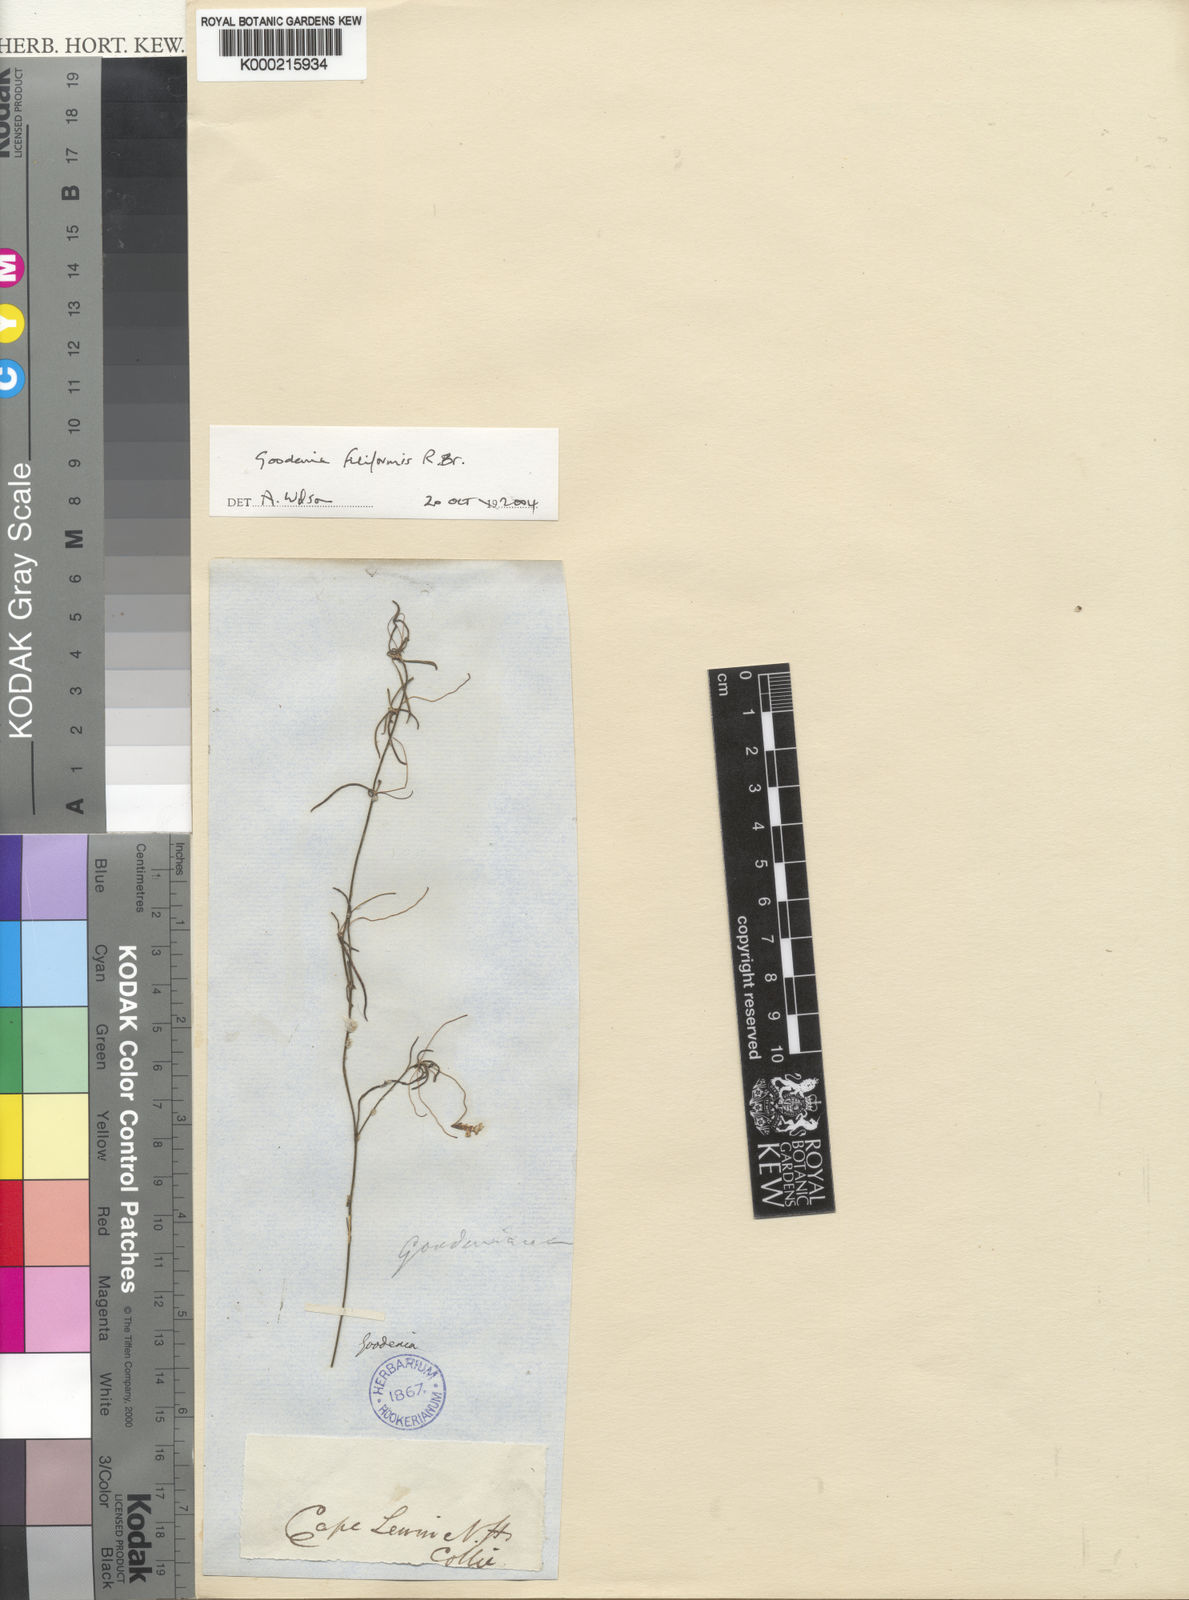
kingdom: Plantae
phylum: Tracheophyta
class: Magnoliopsida
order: Asterales
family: Goodeniaceae
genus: Goodenia
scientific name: Goodenia filiformis
